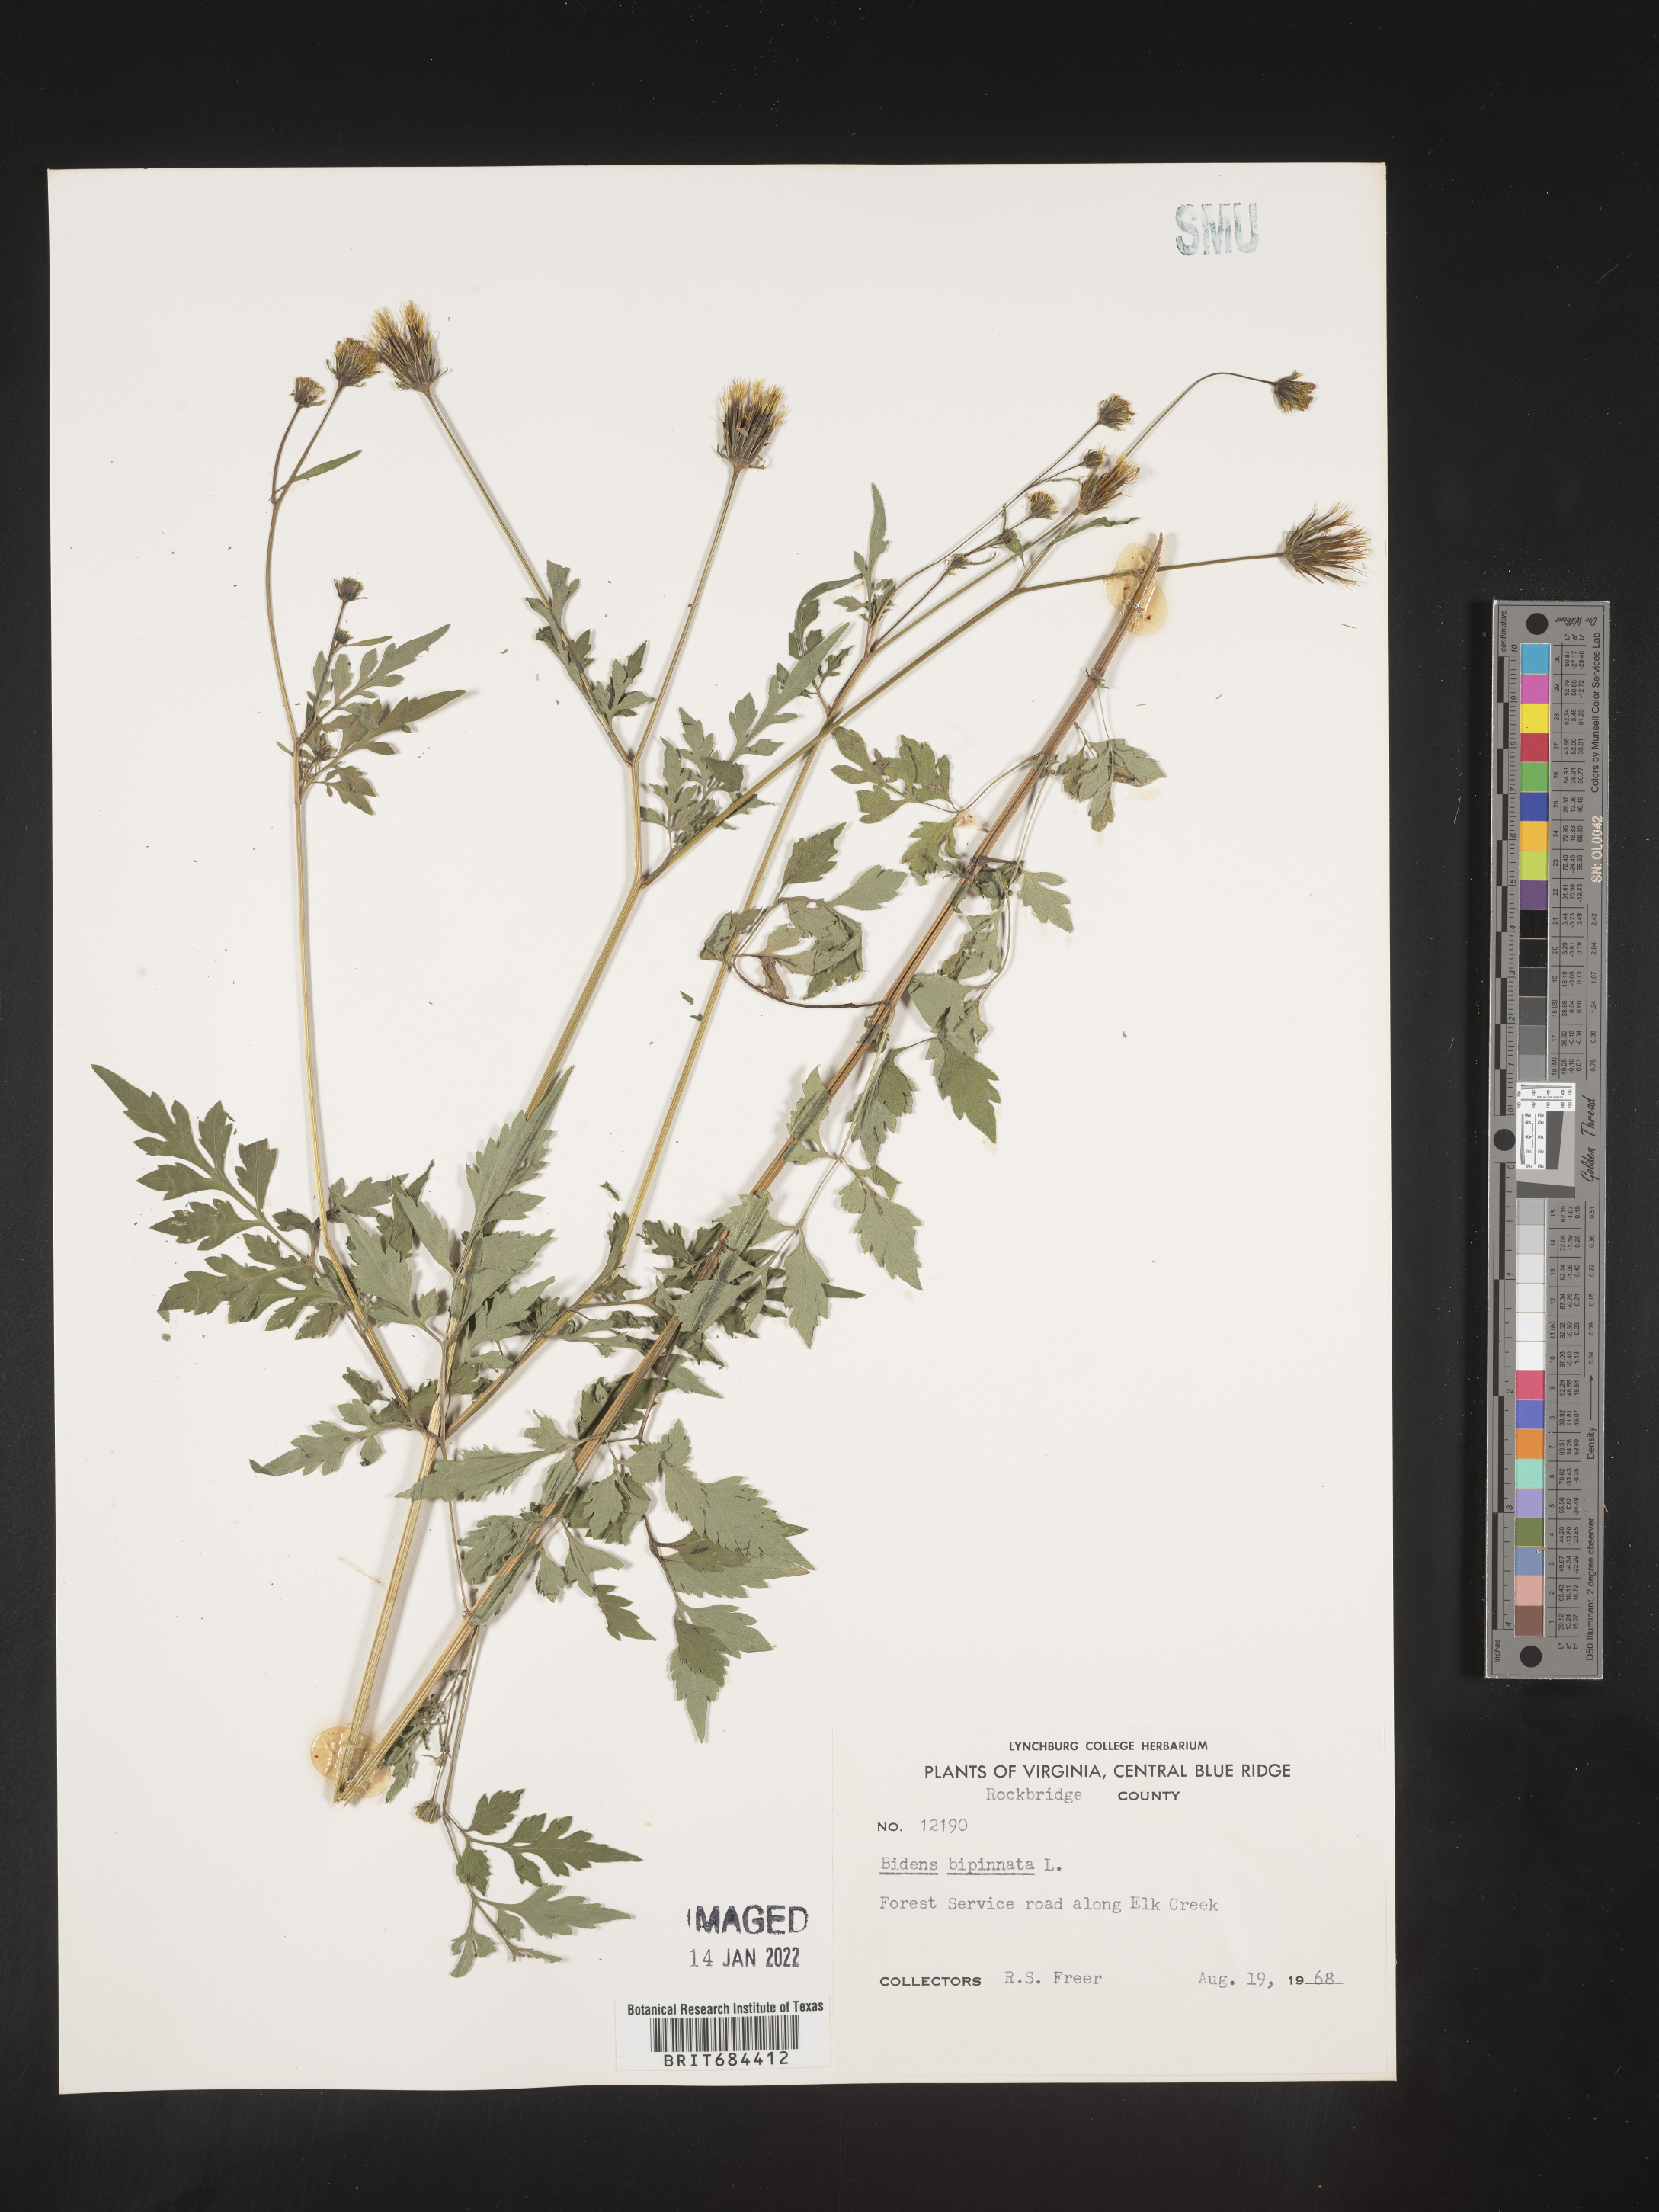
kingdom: Plantae
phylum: Tracheophyta
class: Magnoliopsida
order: Asterales
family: Asteraceae
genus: Bidens
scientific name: Bidens bipinnata
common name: Spanish-needles
